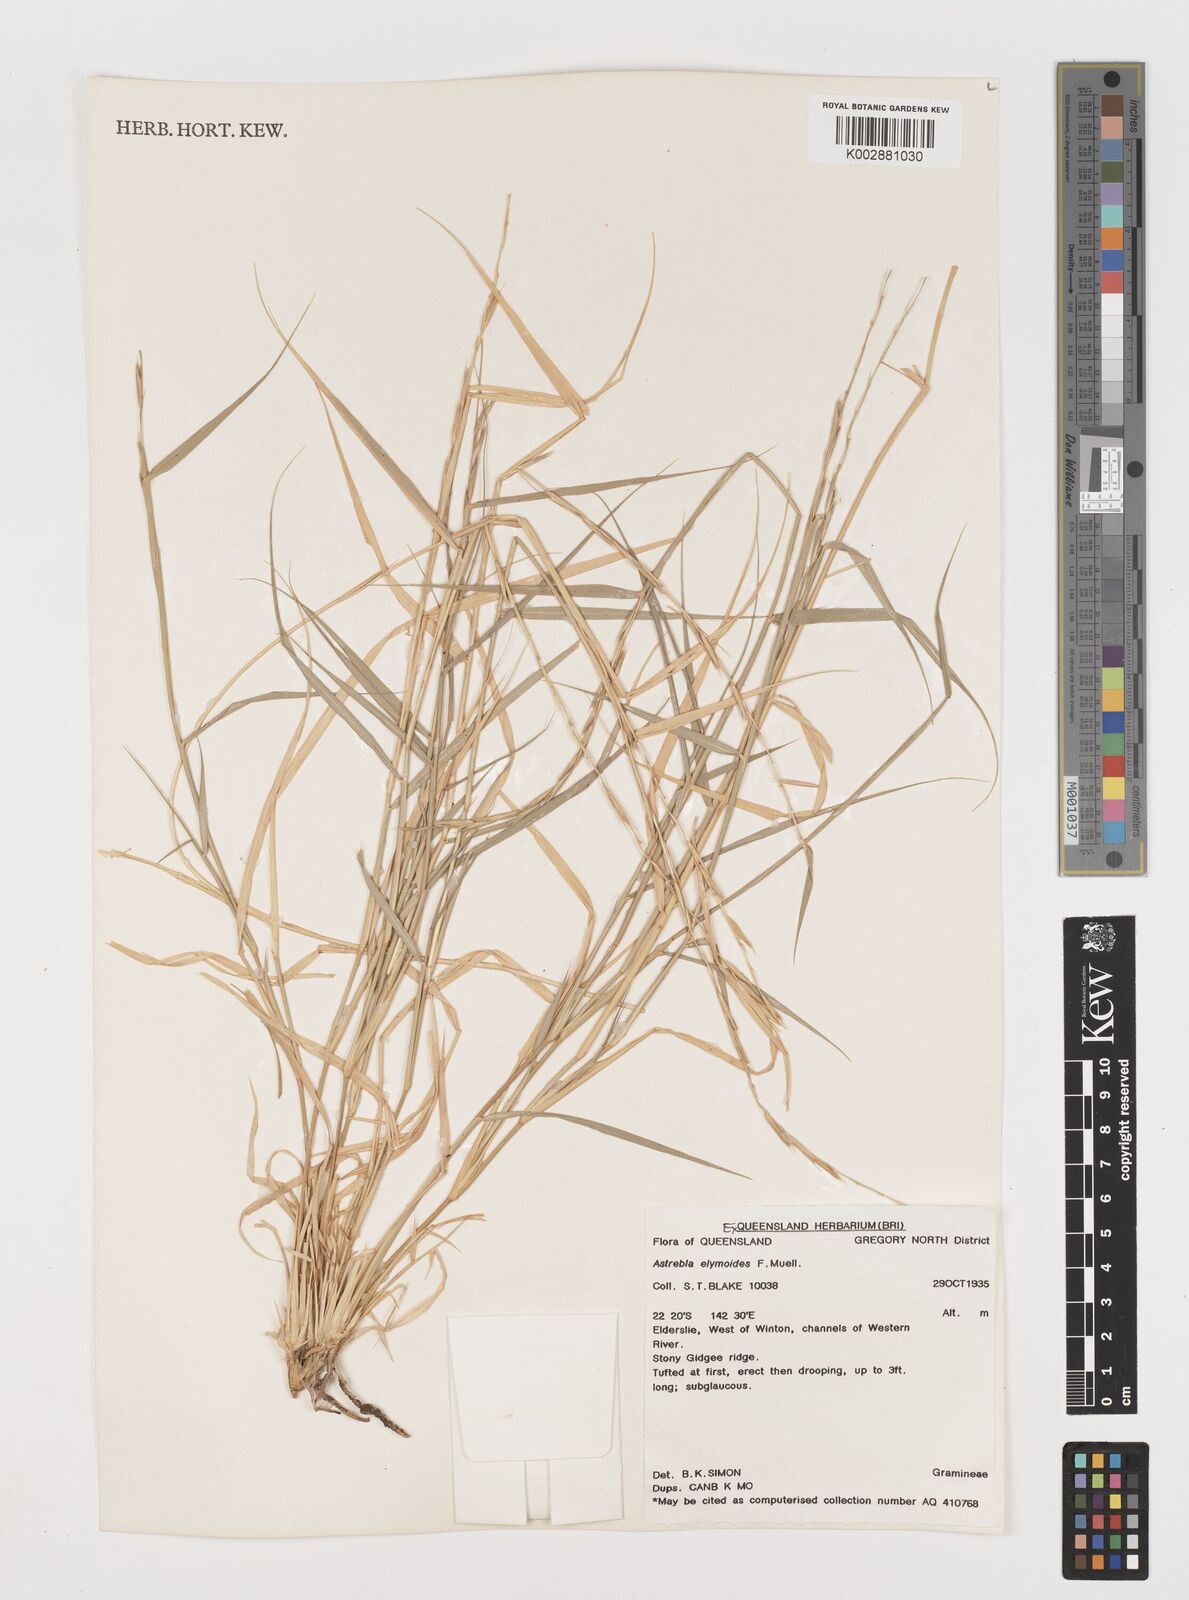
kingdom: Plantae
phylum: Tracheophyta
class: Liliopsida
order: Poales
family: Poaceae
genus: Astrebla
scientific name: Astrebla elymoides
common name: Hoop mitchell grass
